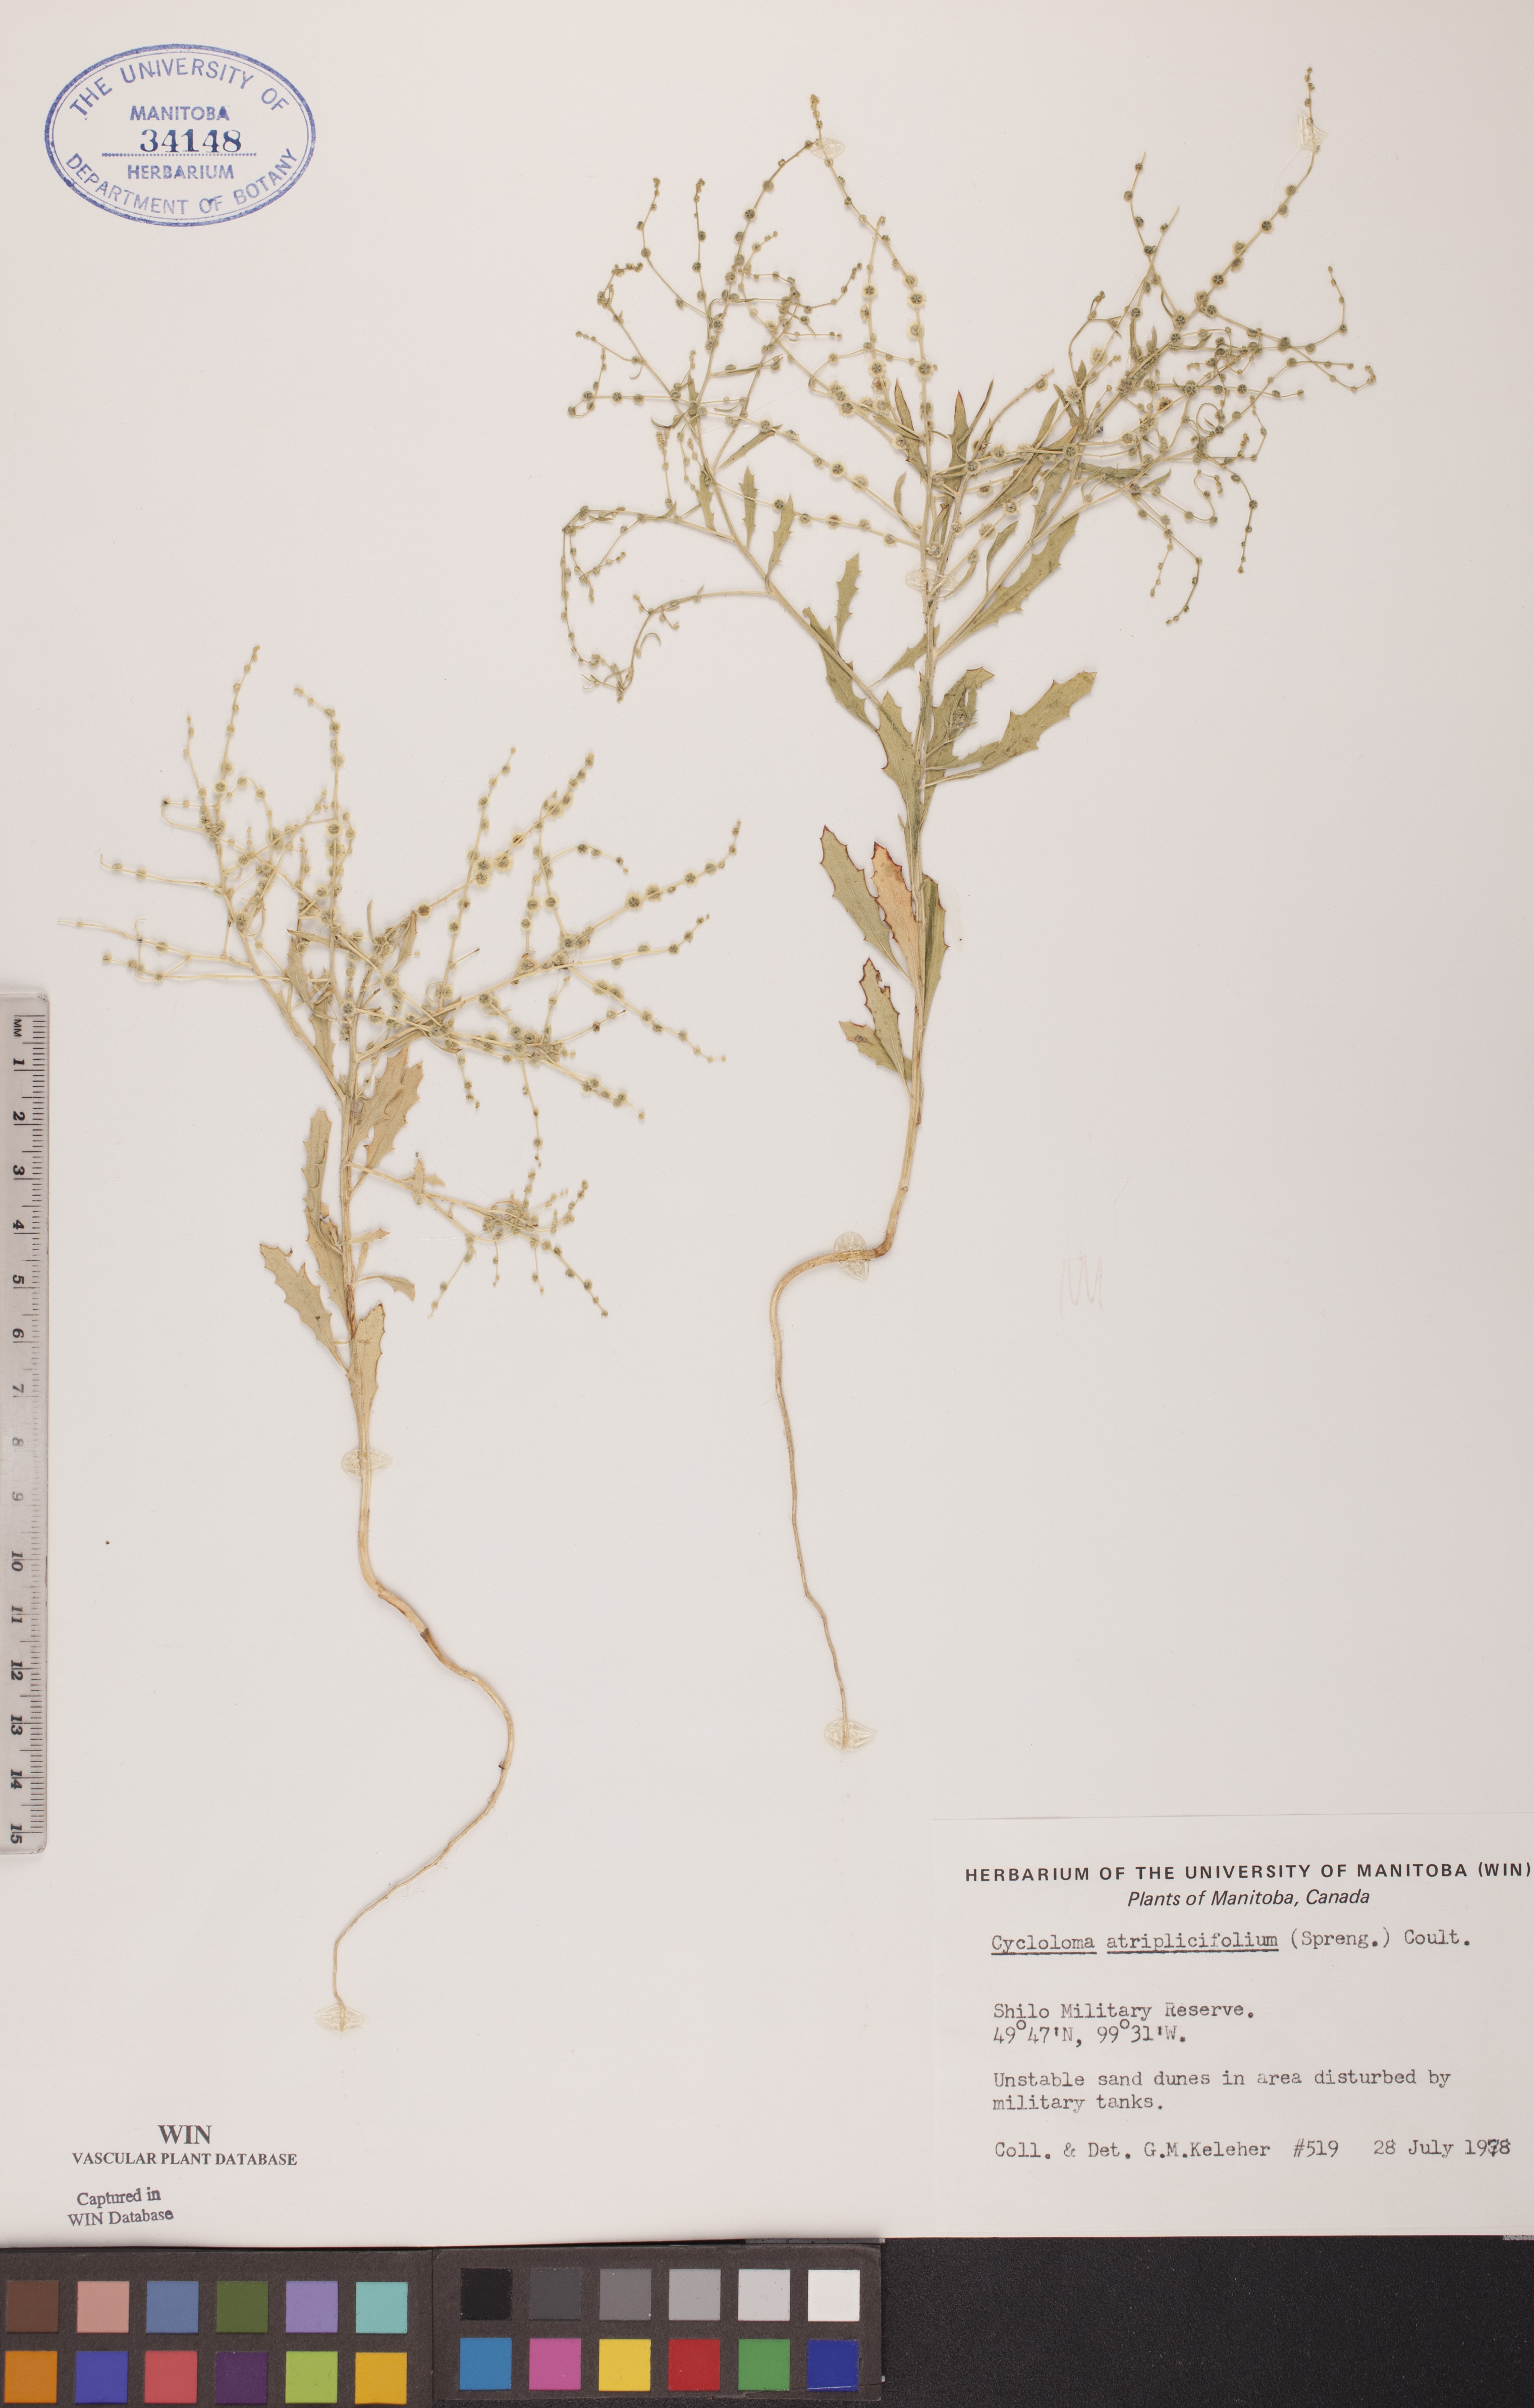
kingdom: Plantae
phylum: Tracheophyta
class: Magnoliopsida
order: Caryophyllales
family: Amaranthaceae
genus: Dysphania
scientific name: Dysphania atriplicifolia
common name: Plains tumbleweed
